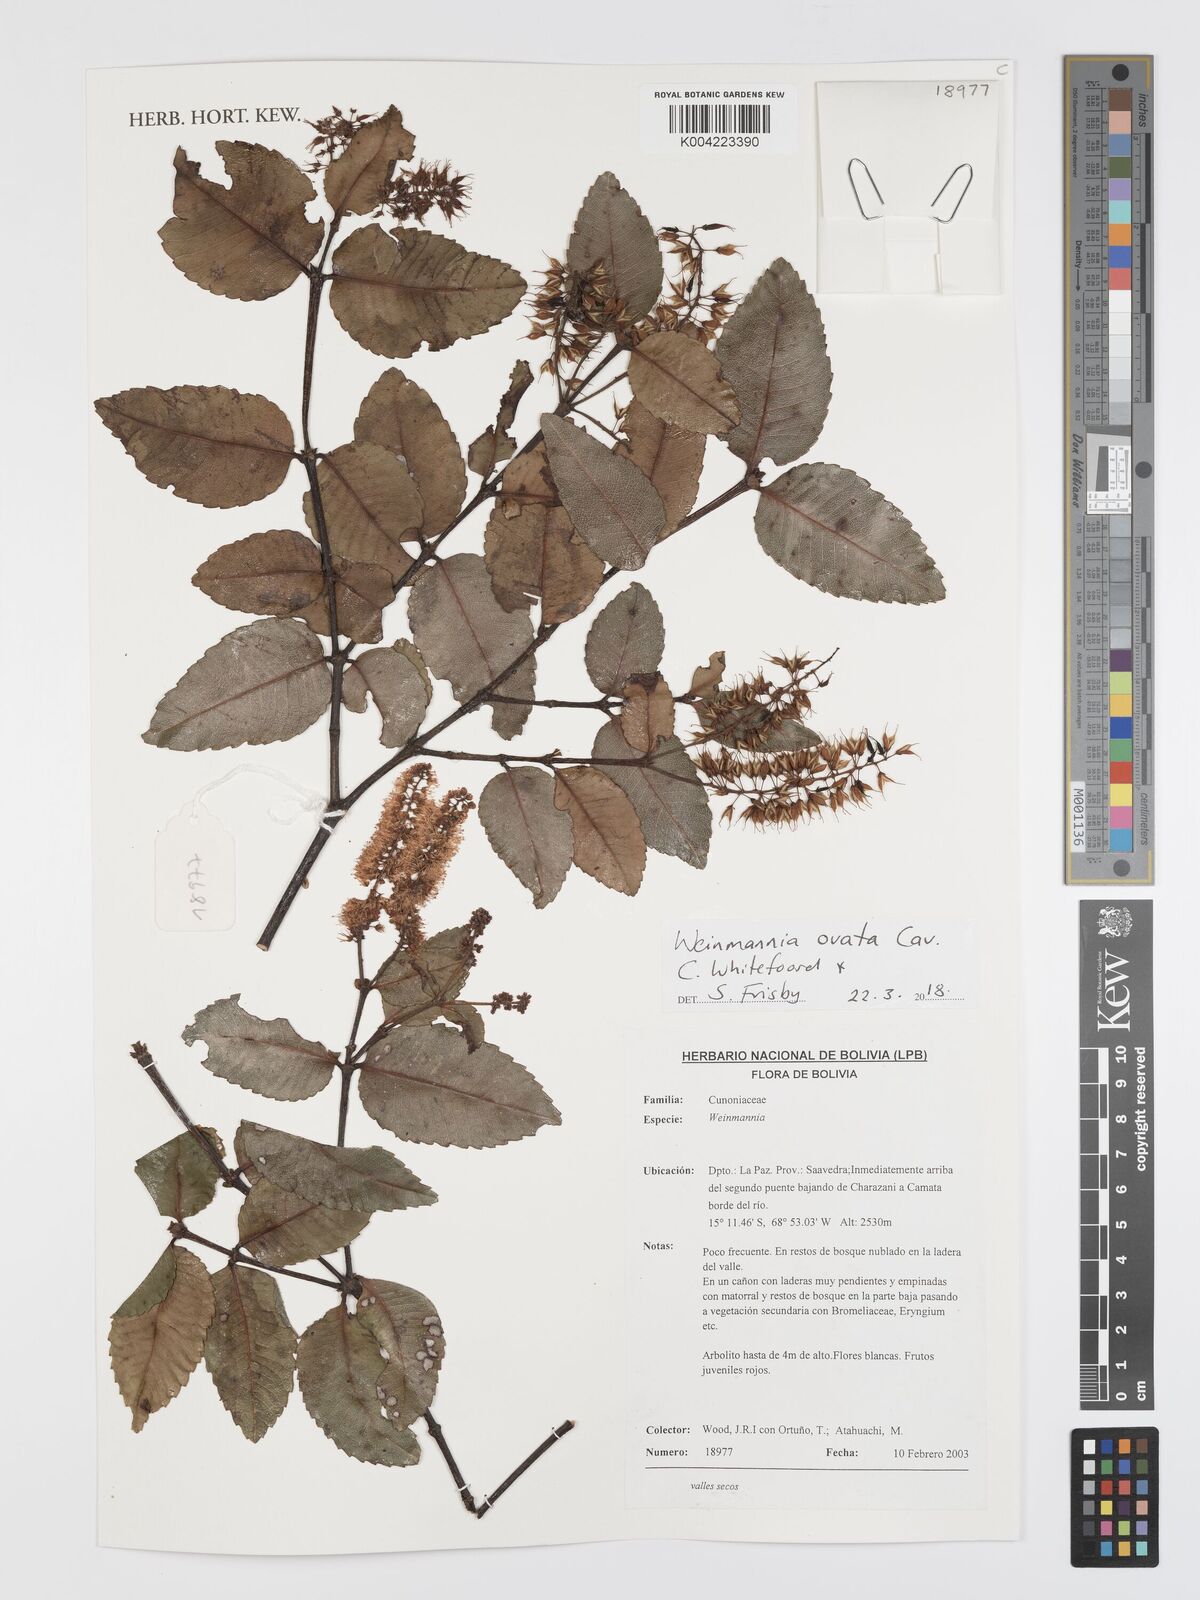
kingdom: Plantae
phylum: Tracheophyta
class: Magnoliopsida
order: Oxalidales
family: Cunoniaceae
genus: Weinmannia
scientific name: Weinmannia ovata
